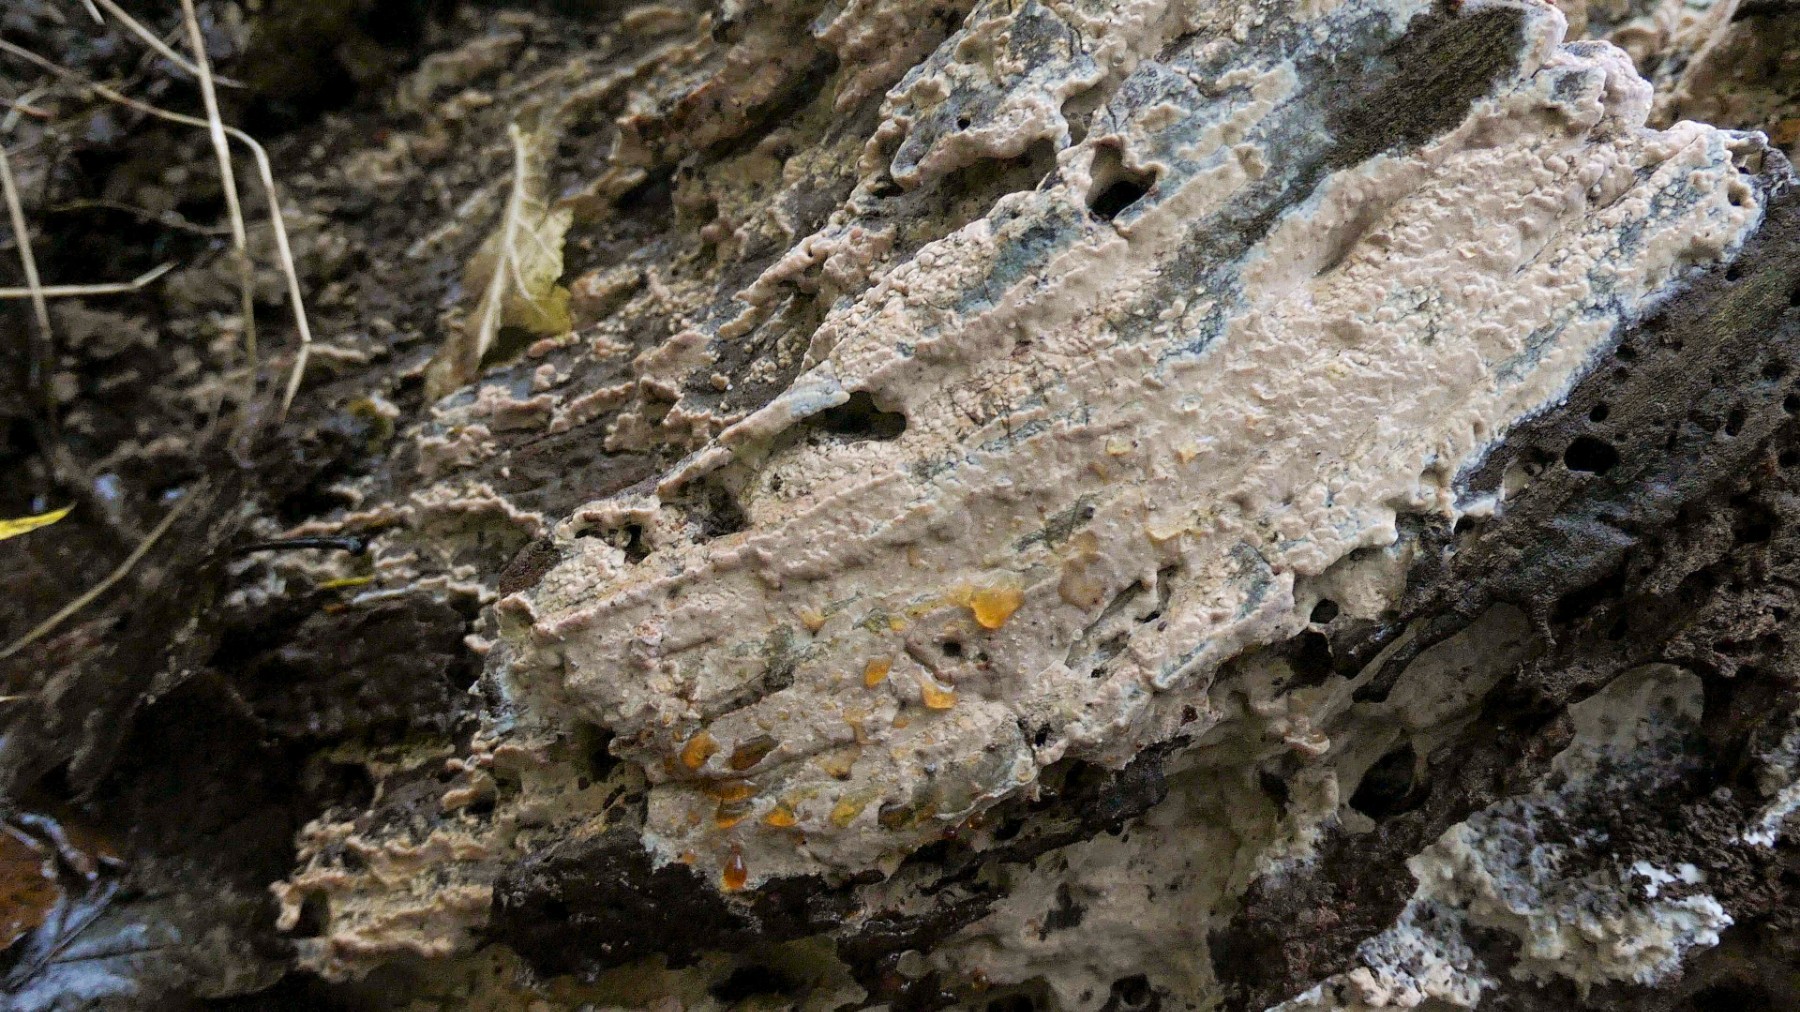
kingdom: Fungi
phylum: Basidiomycota
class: Agaricomycetes
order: Russulales
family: Peniophoraceae
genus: Gloiothele
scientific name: Gloiothele lactescens
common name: bitter olieskind
